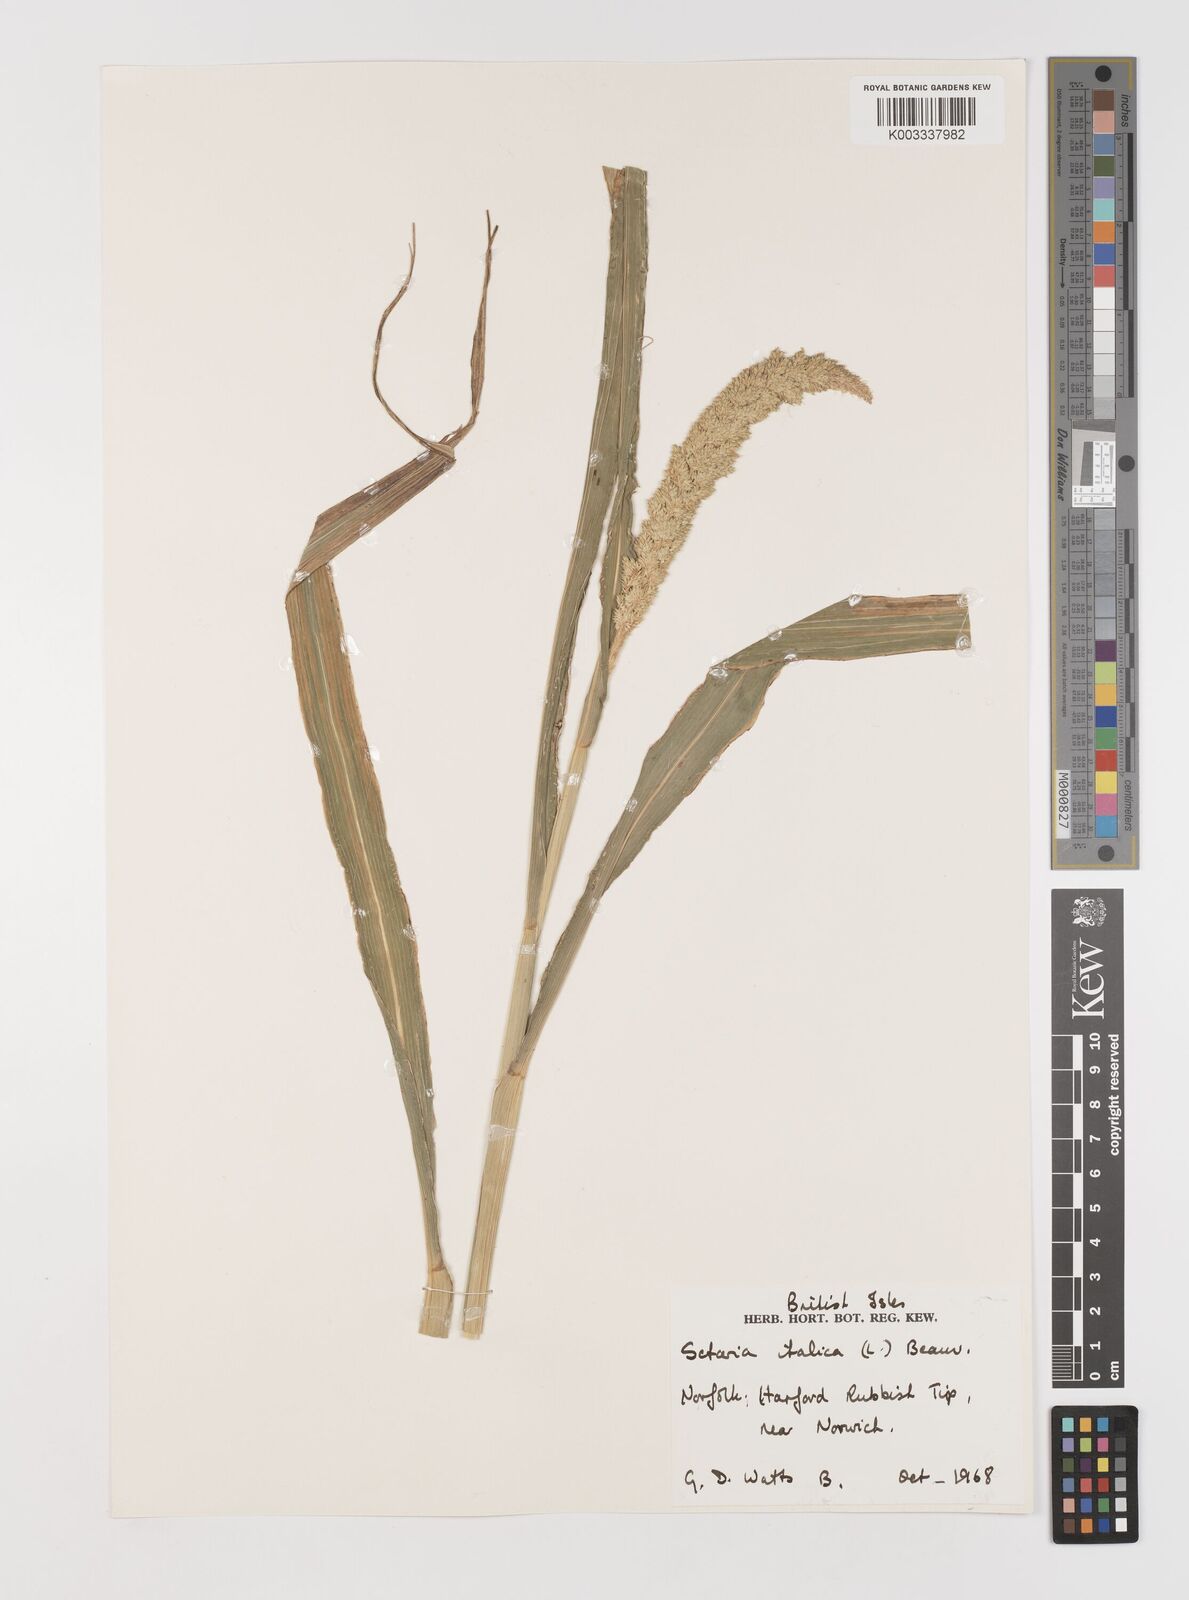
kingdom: Plantae
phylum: Tracheophyta
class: Liliopsida
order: Poales
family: Poaceae
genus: Setaria
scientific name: Setaria italica
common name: Foxtail bristle-grass
